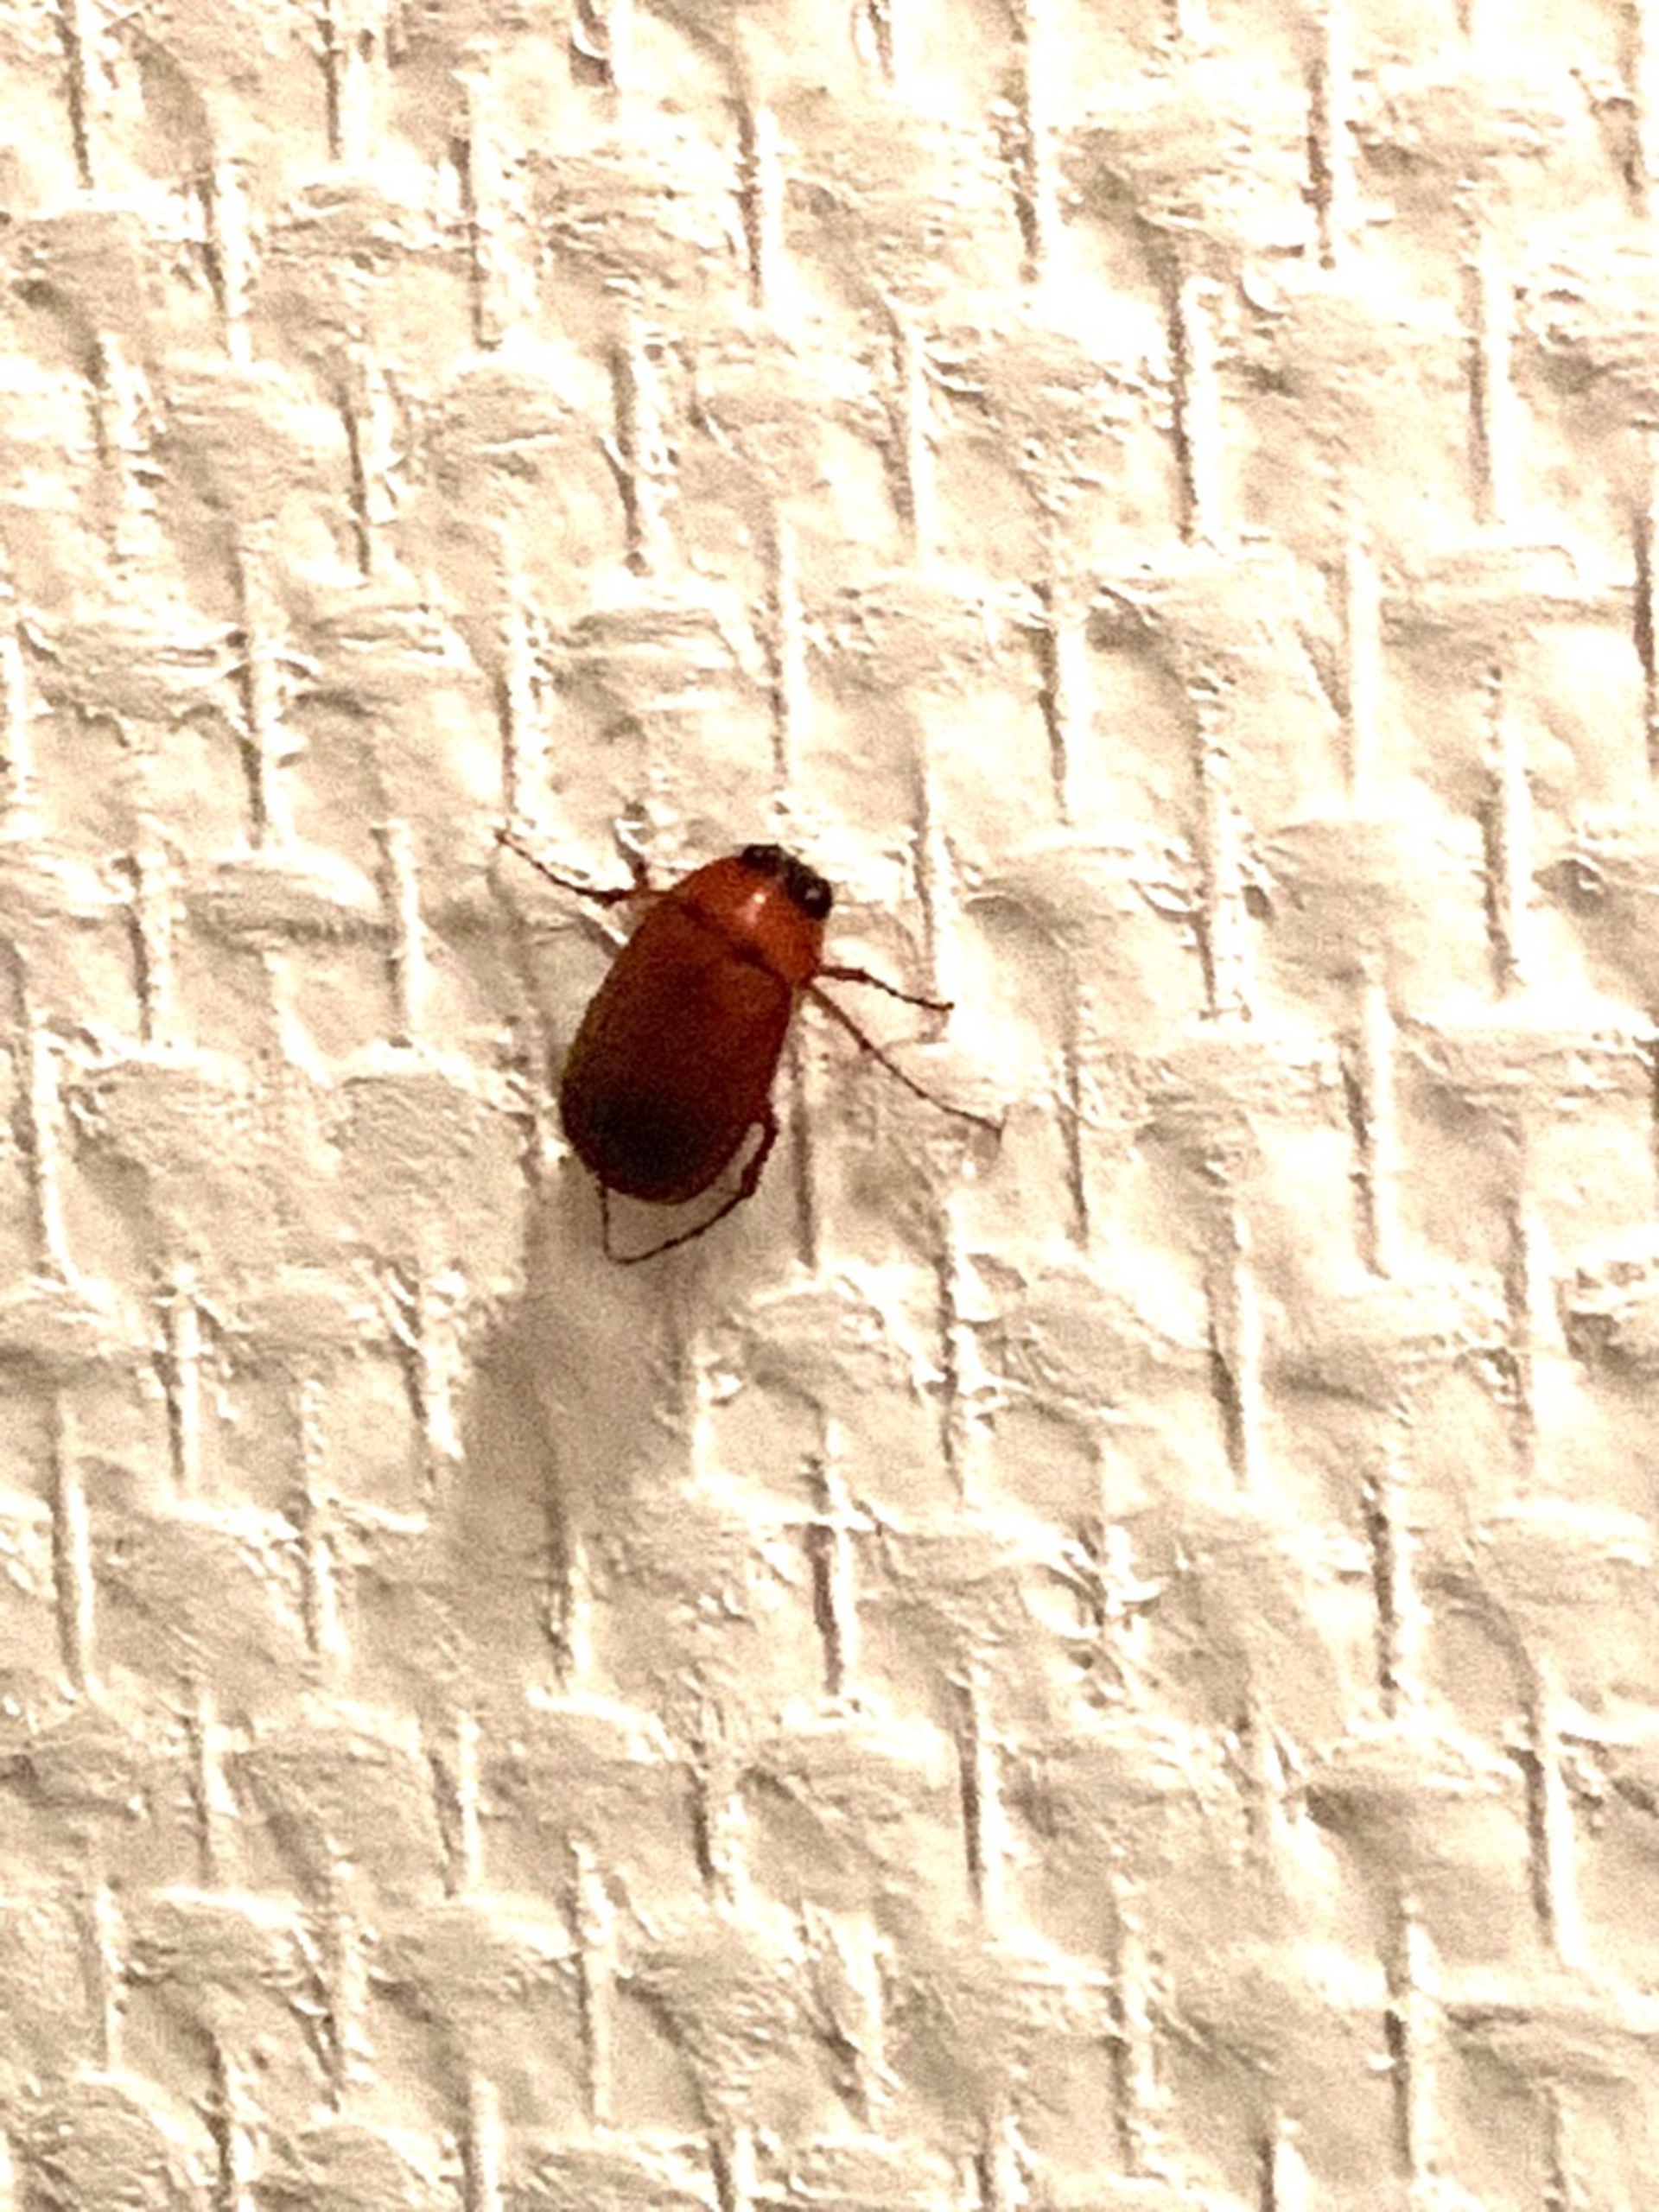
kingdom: Animalia
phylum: Arthropoda
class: Insecta
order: Coleoptera
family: Scarabaeidae
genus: Serica
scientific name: Serica brunnea
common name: Natoldenborre
